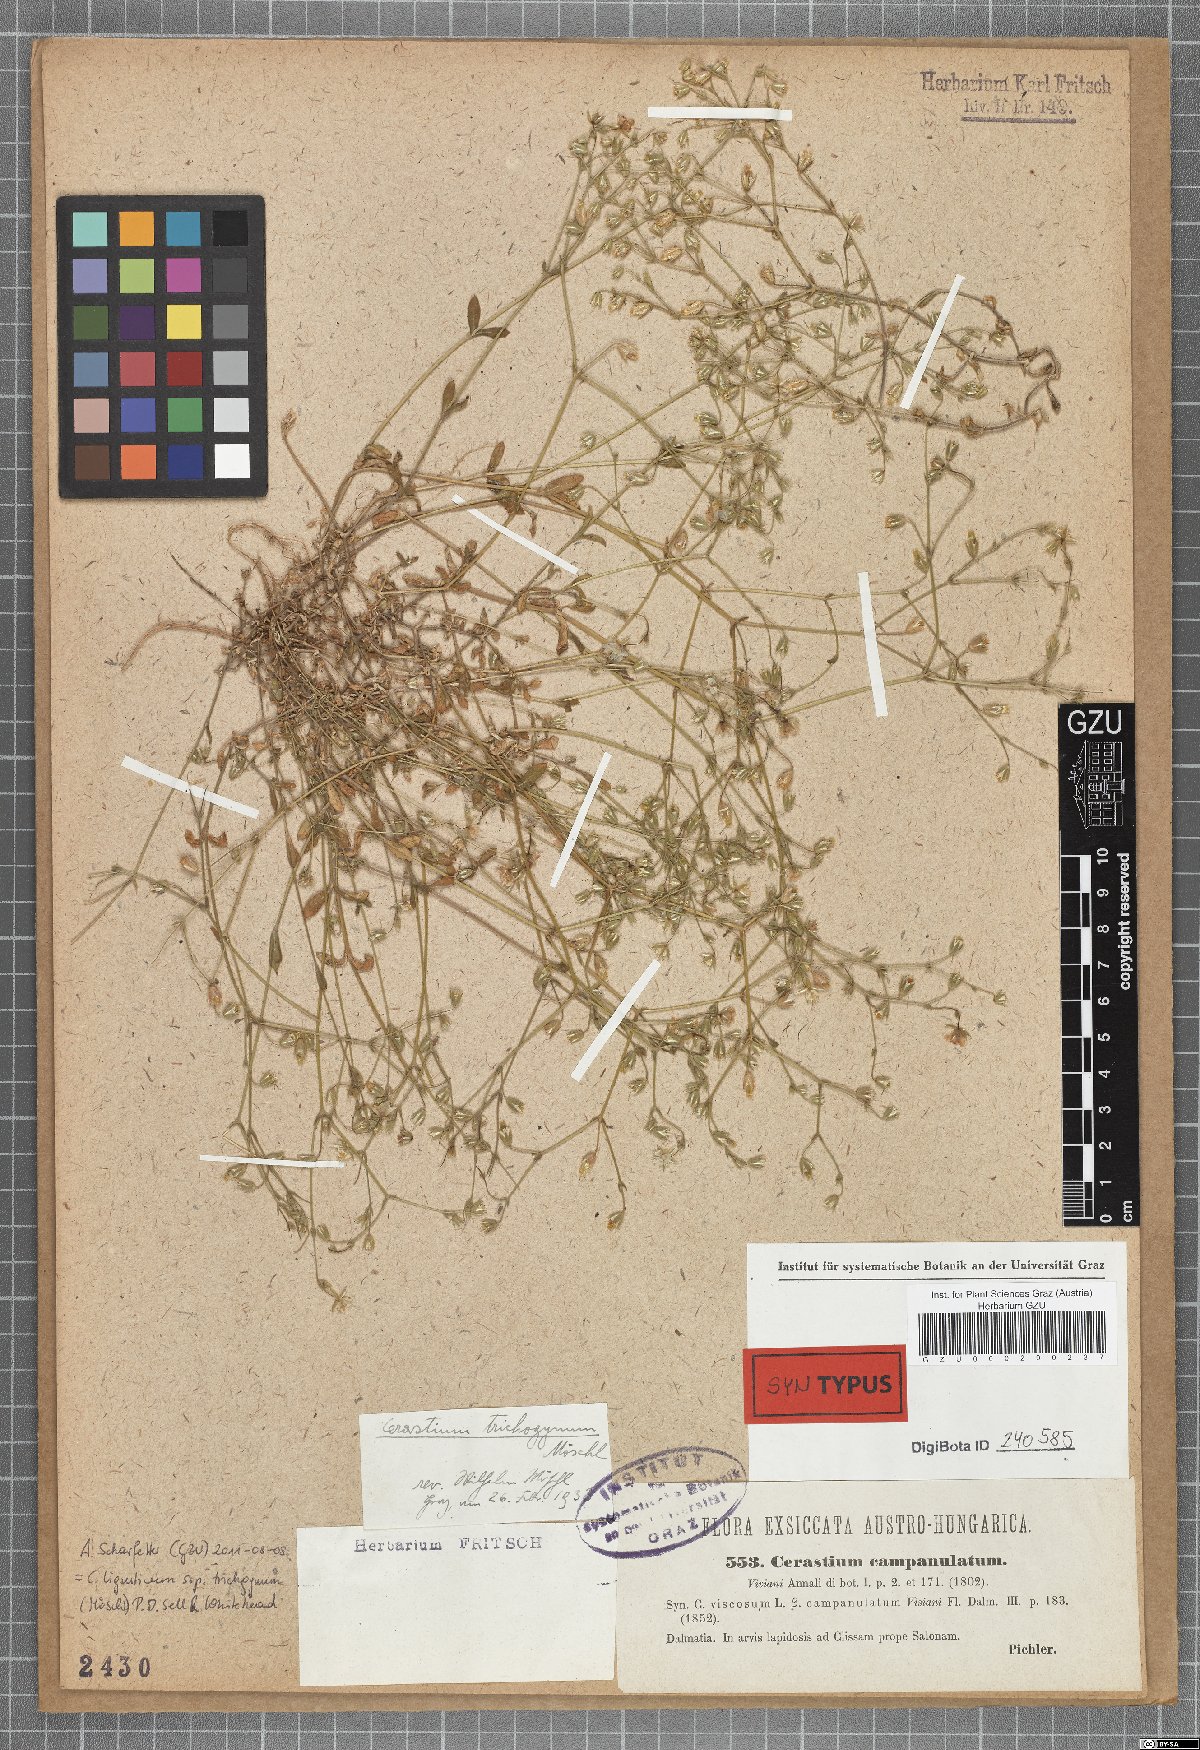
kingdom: Plantae
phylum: Tracheophyta
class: Magnoliopsida
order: Caryophyllales
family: Caryophyllaceae
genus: Cerastium
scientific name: Cerastium ligusticum
